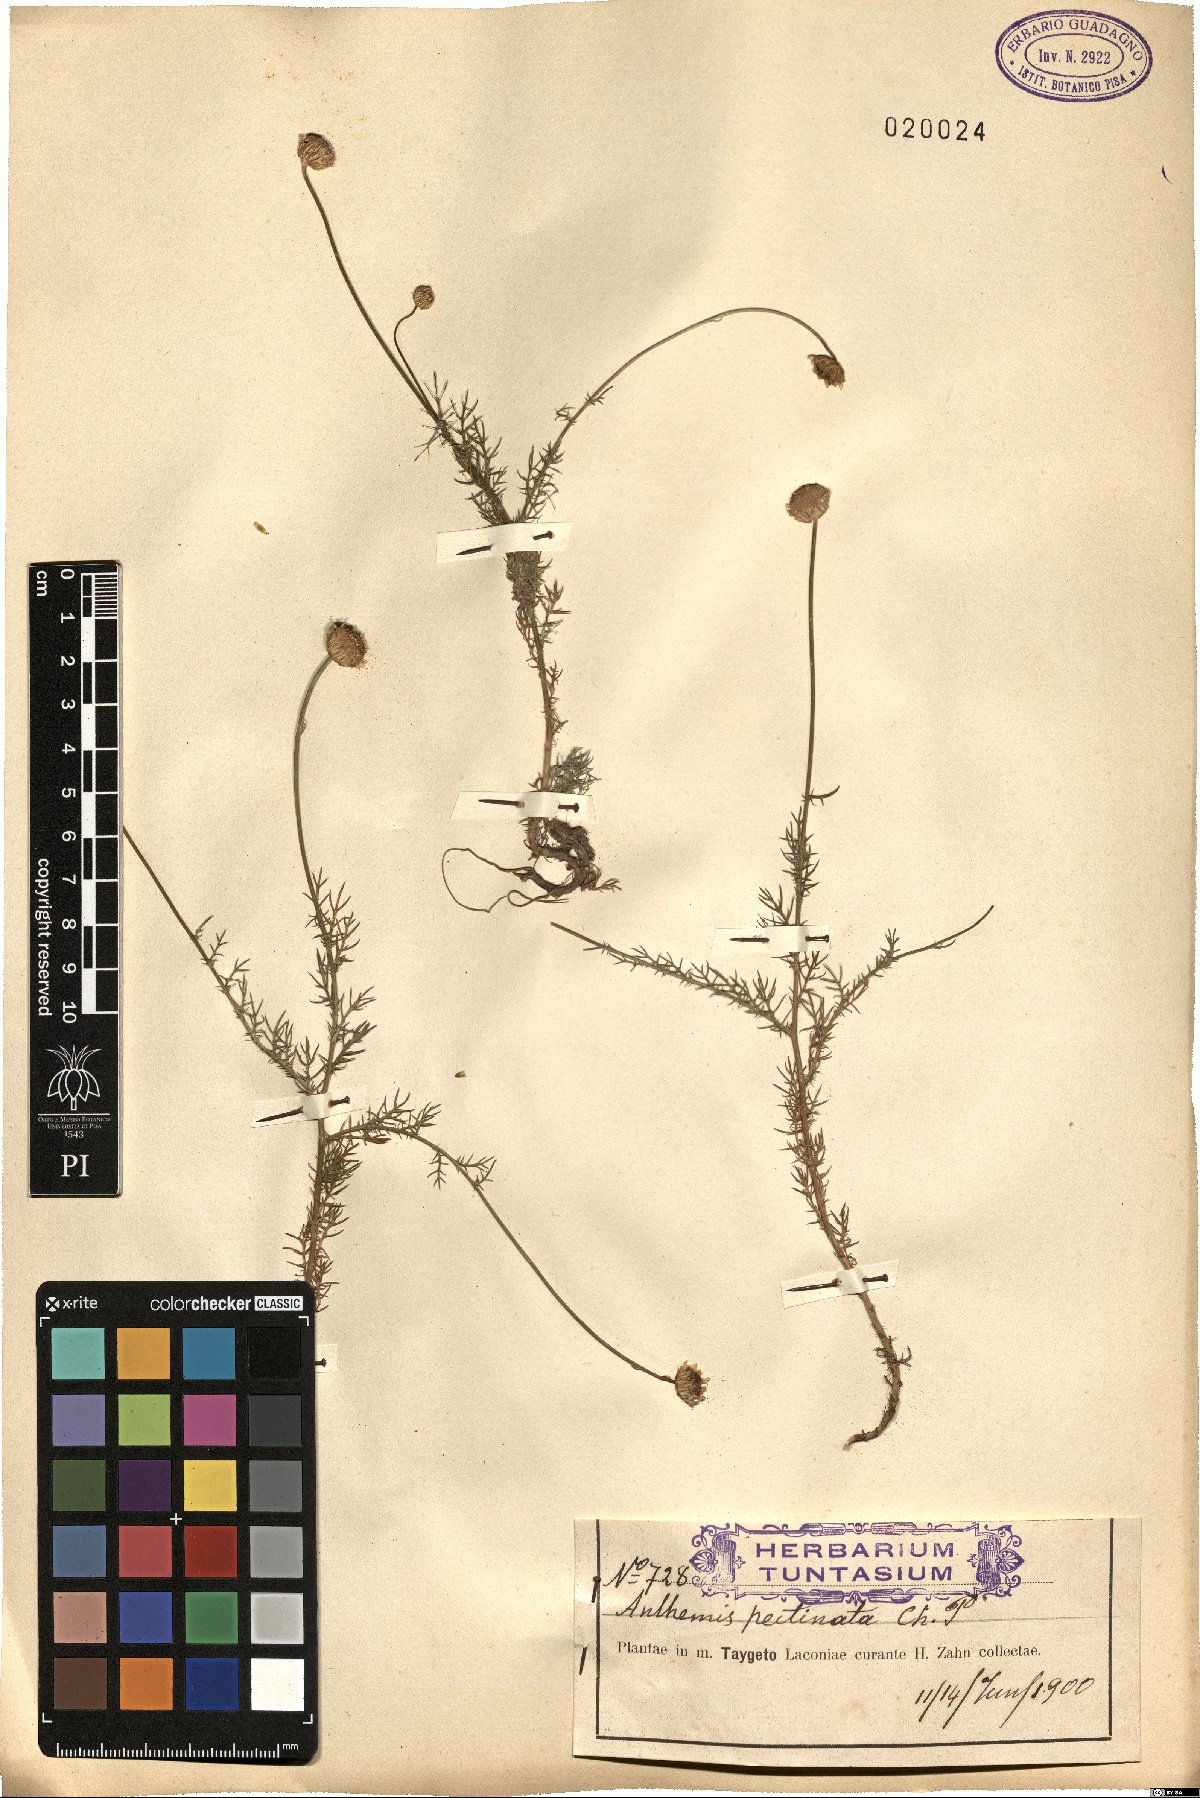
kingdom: Plantae
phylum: Tracheophyta
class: Magnoliopsida
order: Asterales
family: Asteraceae
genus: Anthemis
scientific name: Anthemis orientalis
